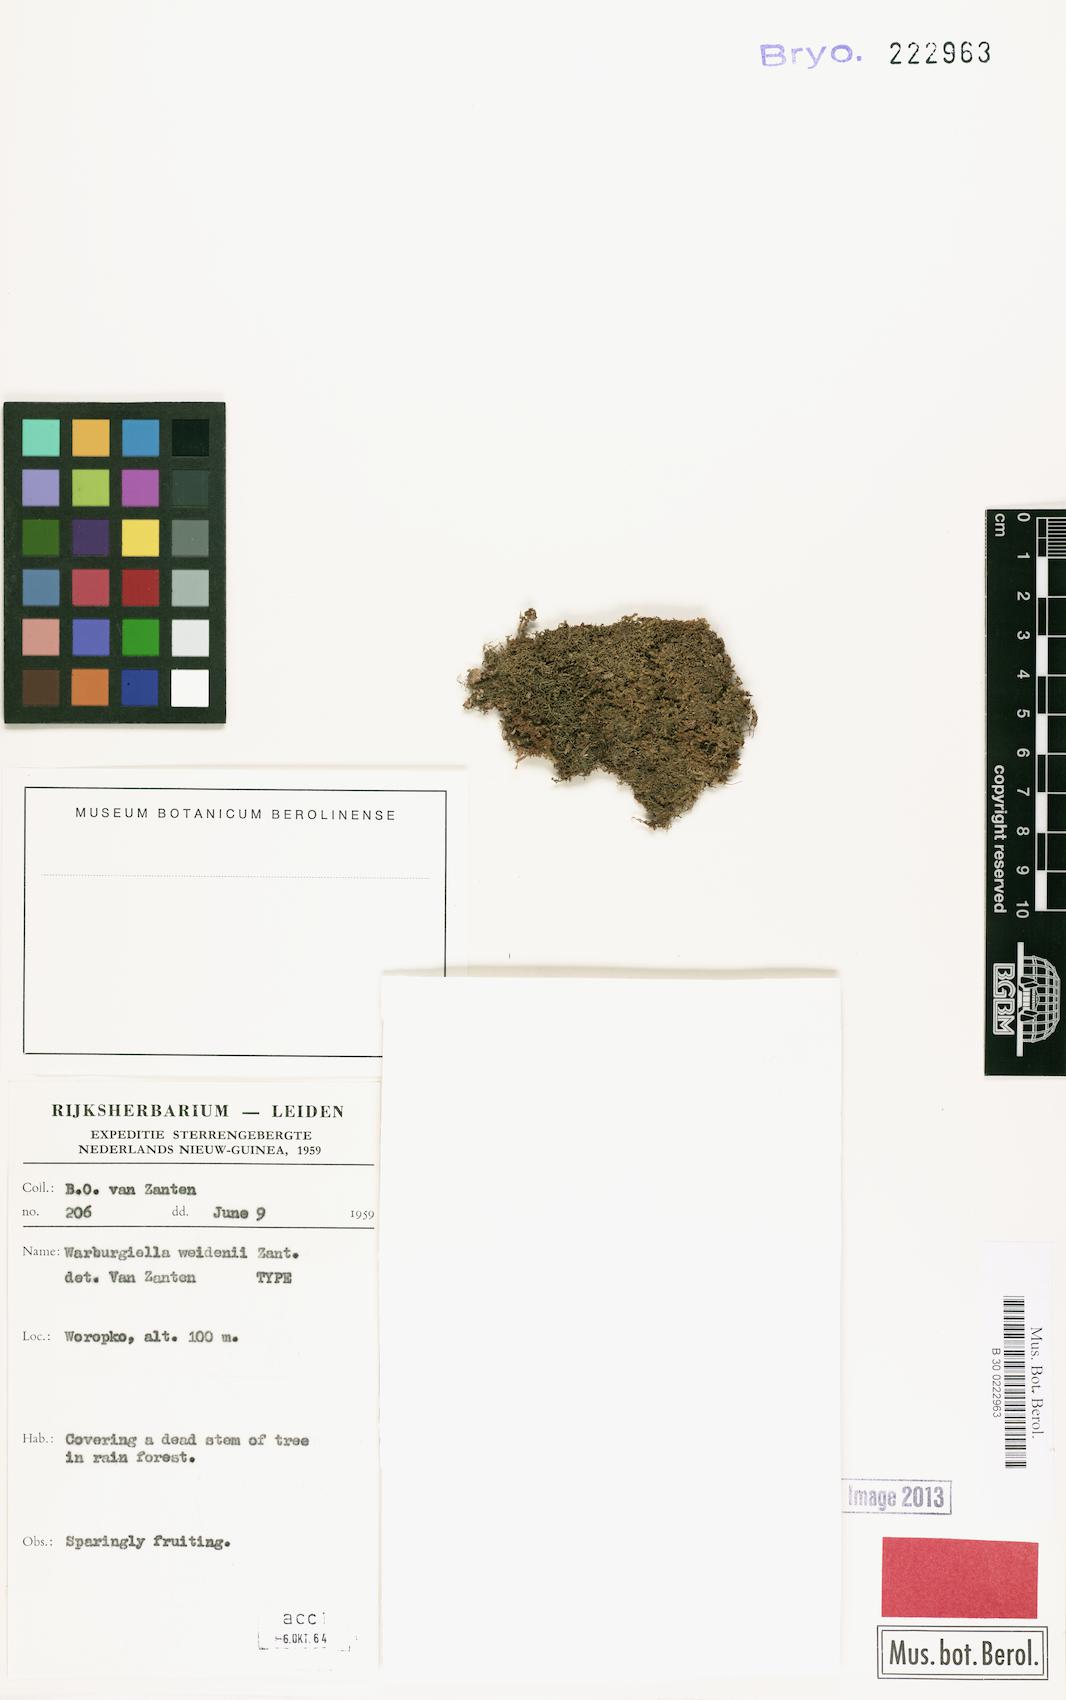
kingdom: Plantae
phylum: Bryophyta
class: Bryopsida
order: Hypnales
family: Sematophyllaceae
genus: Radulina
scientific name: Radulina weidenii
